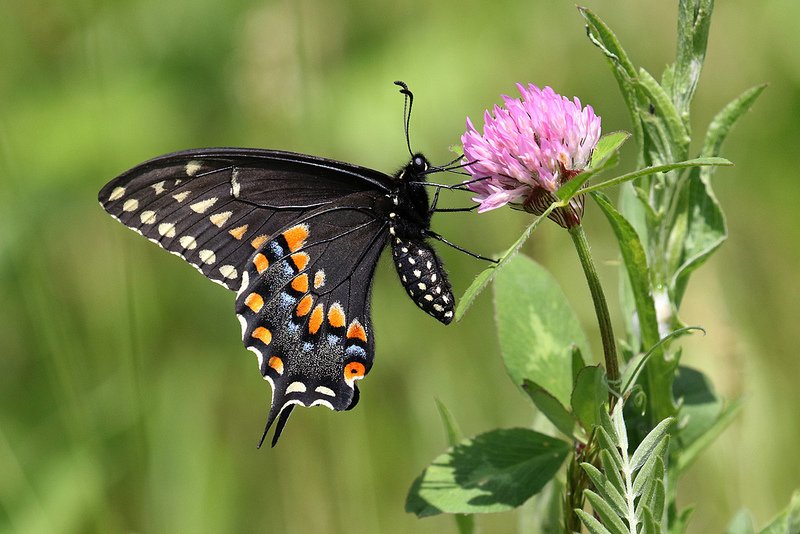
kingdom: Animalia
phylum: Arthropoda
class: Insecta
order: Lepidoptera
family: Papilionidae
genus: Papilio
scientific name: Papilio polyxenes
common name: Black Swallowtail
